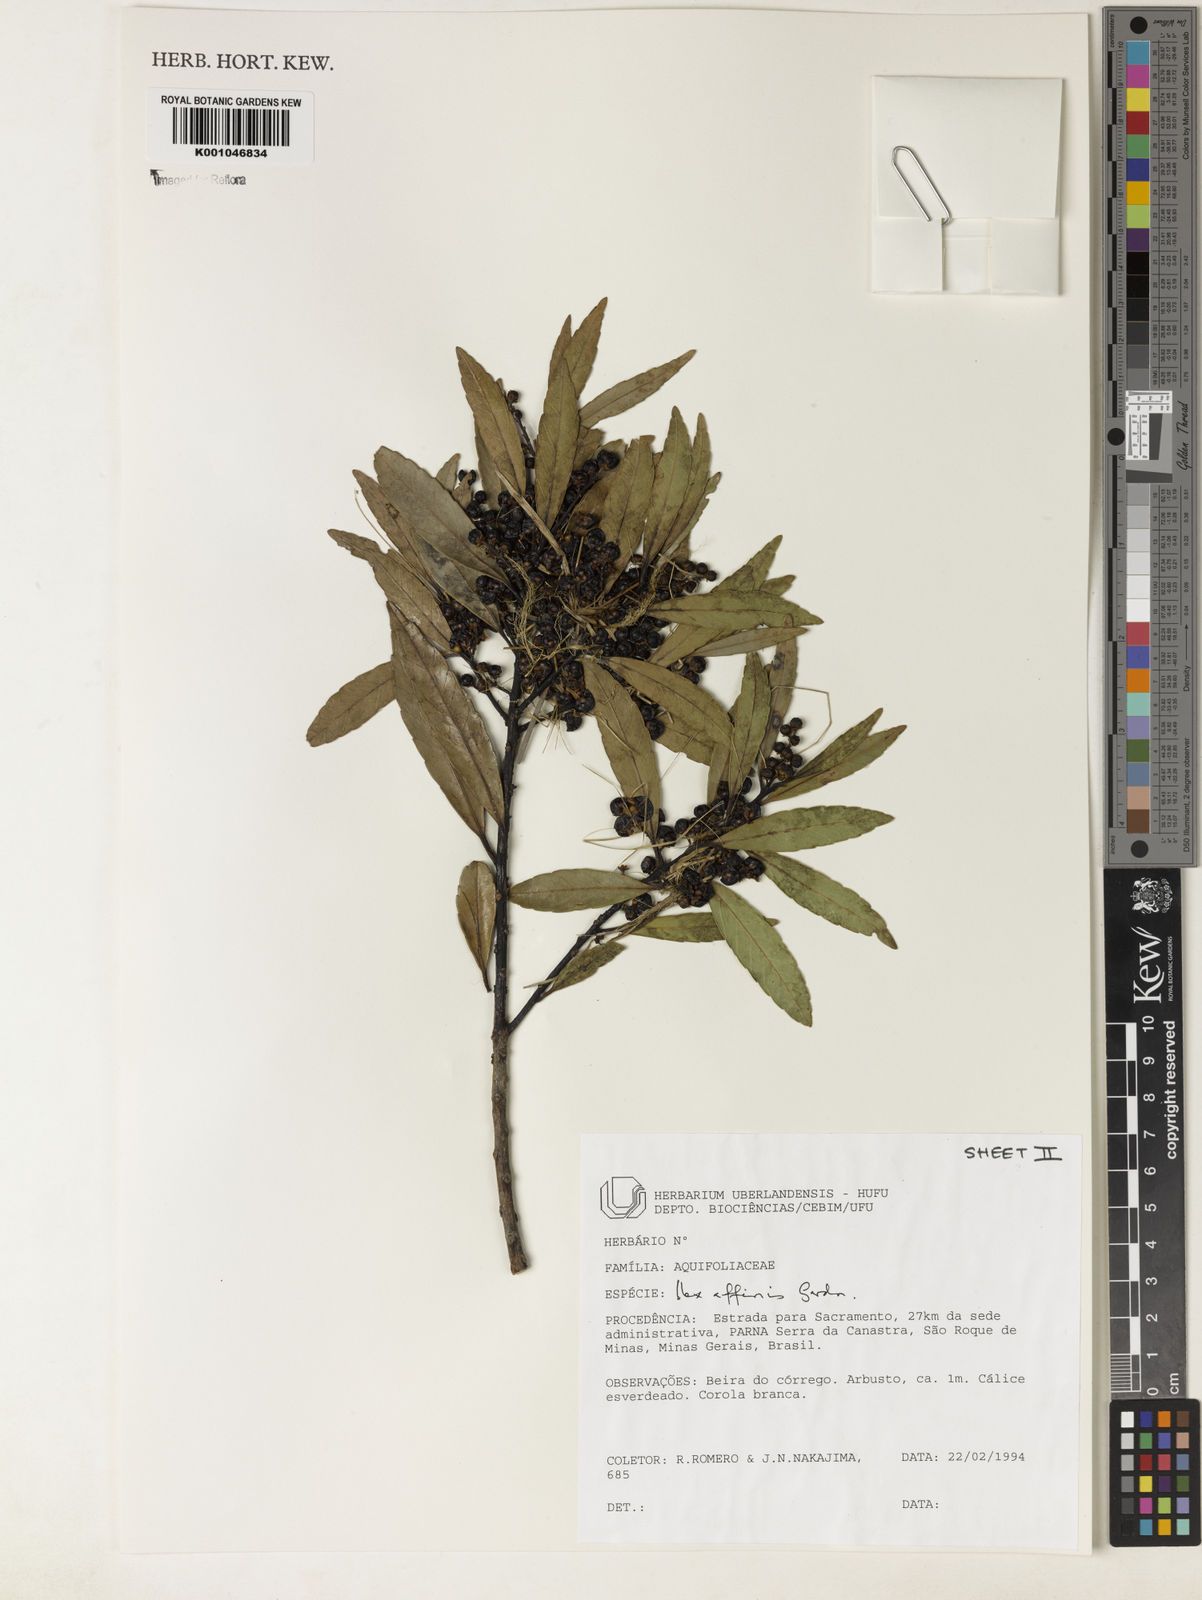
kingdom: Plantae
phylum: Tracheophyta
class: Magnoliopsida
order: Aquifoliales
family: Aquifoliaceae
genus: Ilex
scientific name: Ilex affinis
